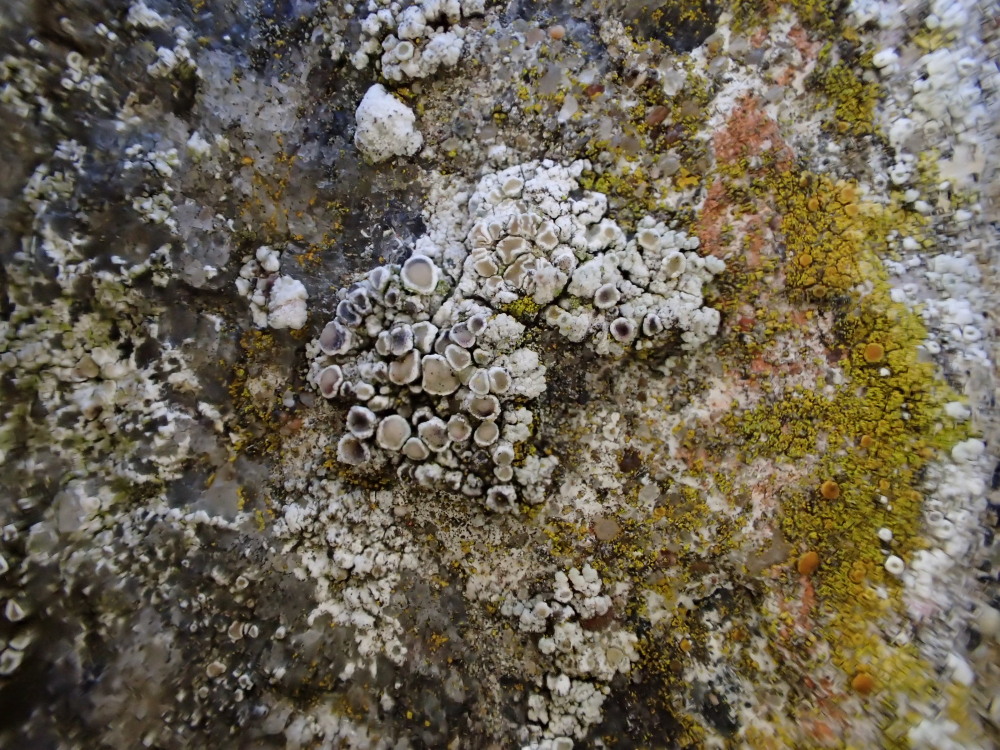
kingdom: Fungi
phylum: Ascomycota
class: Lecanoromycetes
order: Lecanorales
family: Lecanoraceae
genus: Polyozosia
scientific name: Polyozosia albescens
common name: cement-kantskivelav
